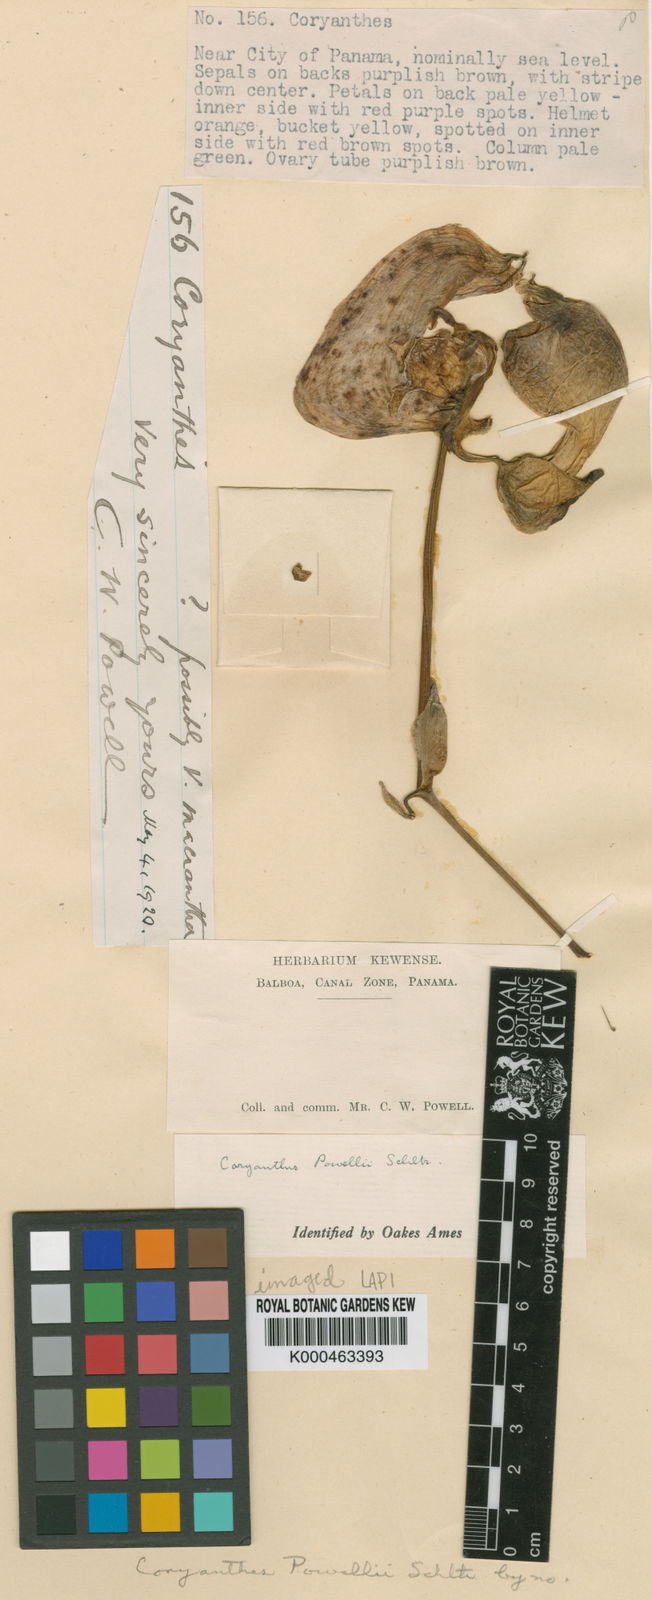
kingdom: Plantae
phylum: Tracheophyta
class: Liliopsida
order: Asparagales
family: Orchidaceae
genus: Coryanthes
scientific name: Coryanthes hunteriana
